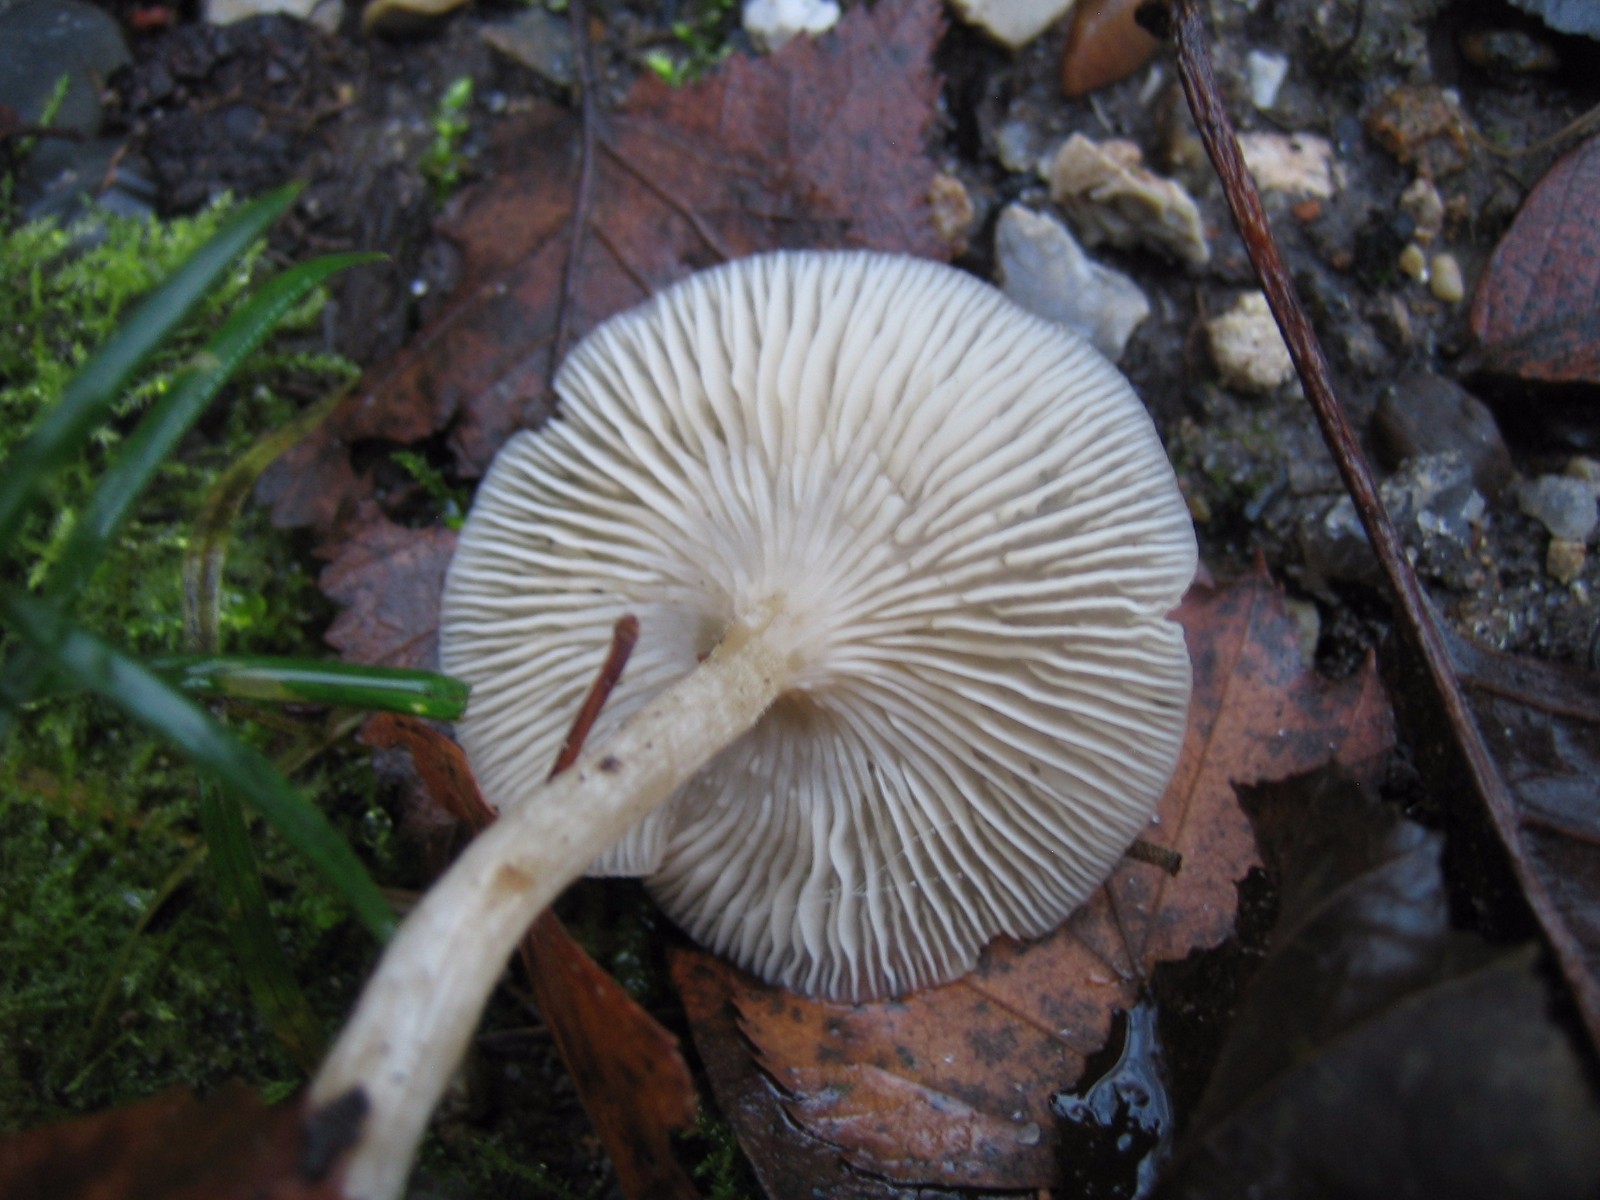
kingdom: Fungi
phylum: Basidiomycota
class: Agaricomycetes
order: Agaricales
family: Tricholomataceae
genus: Clitocybe
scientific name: Clitocybe fragrans
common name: vellugtende tragthat
